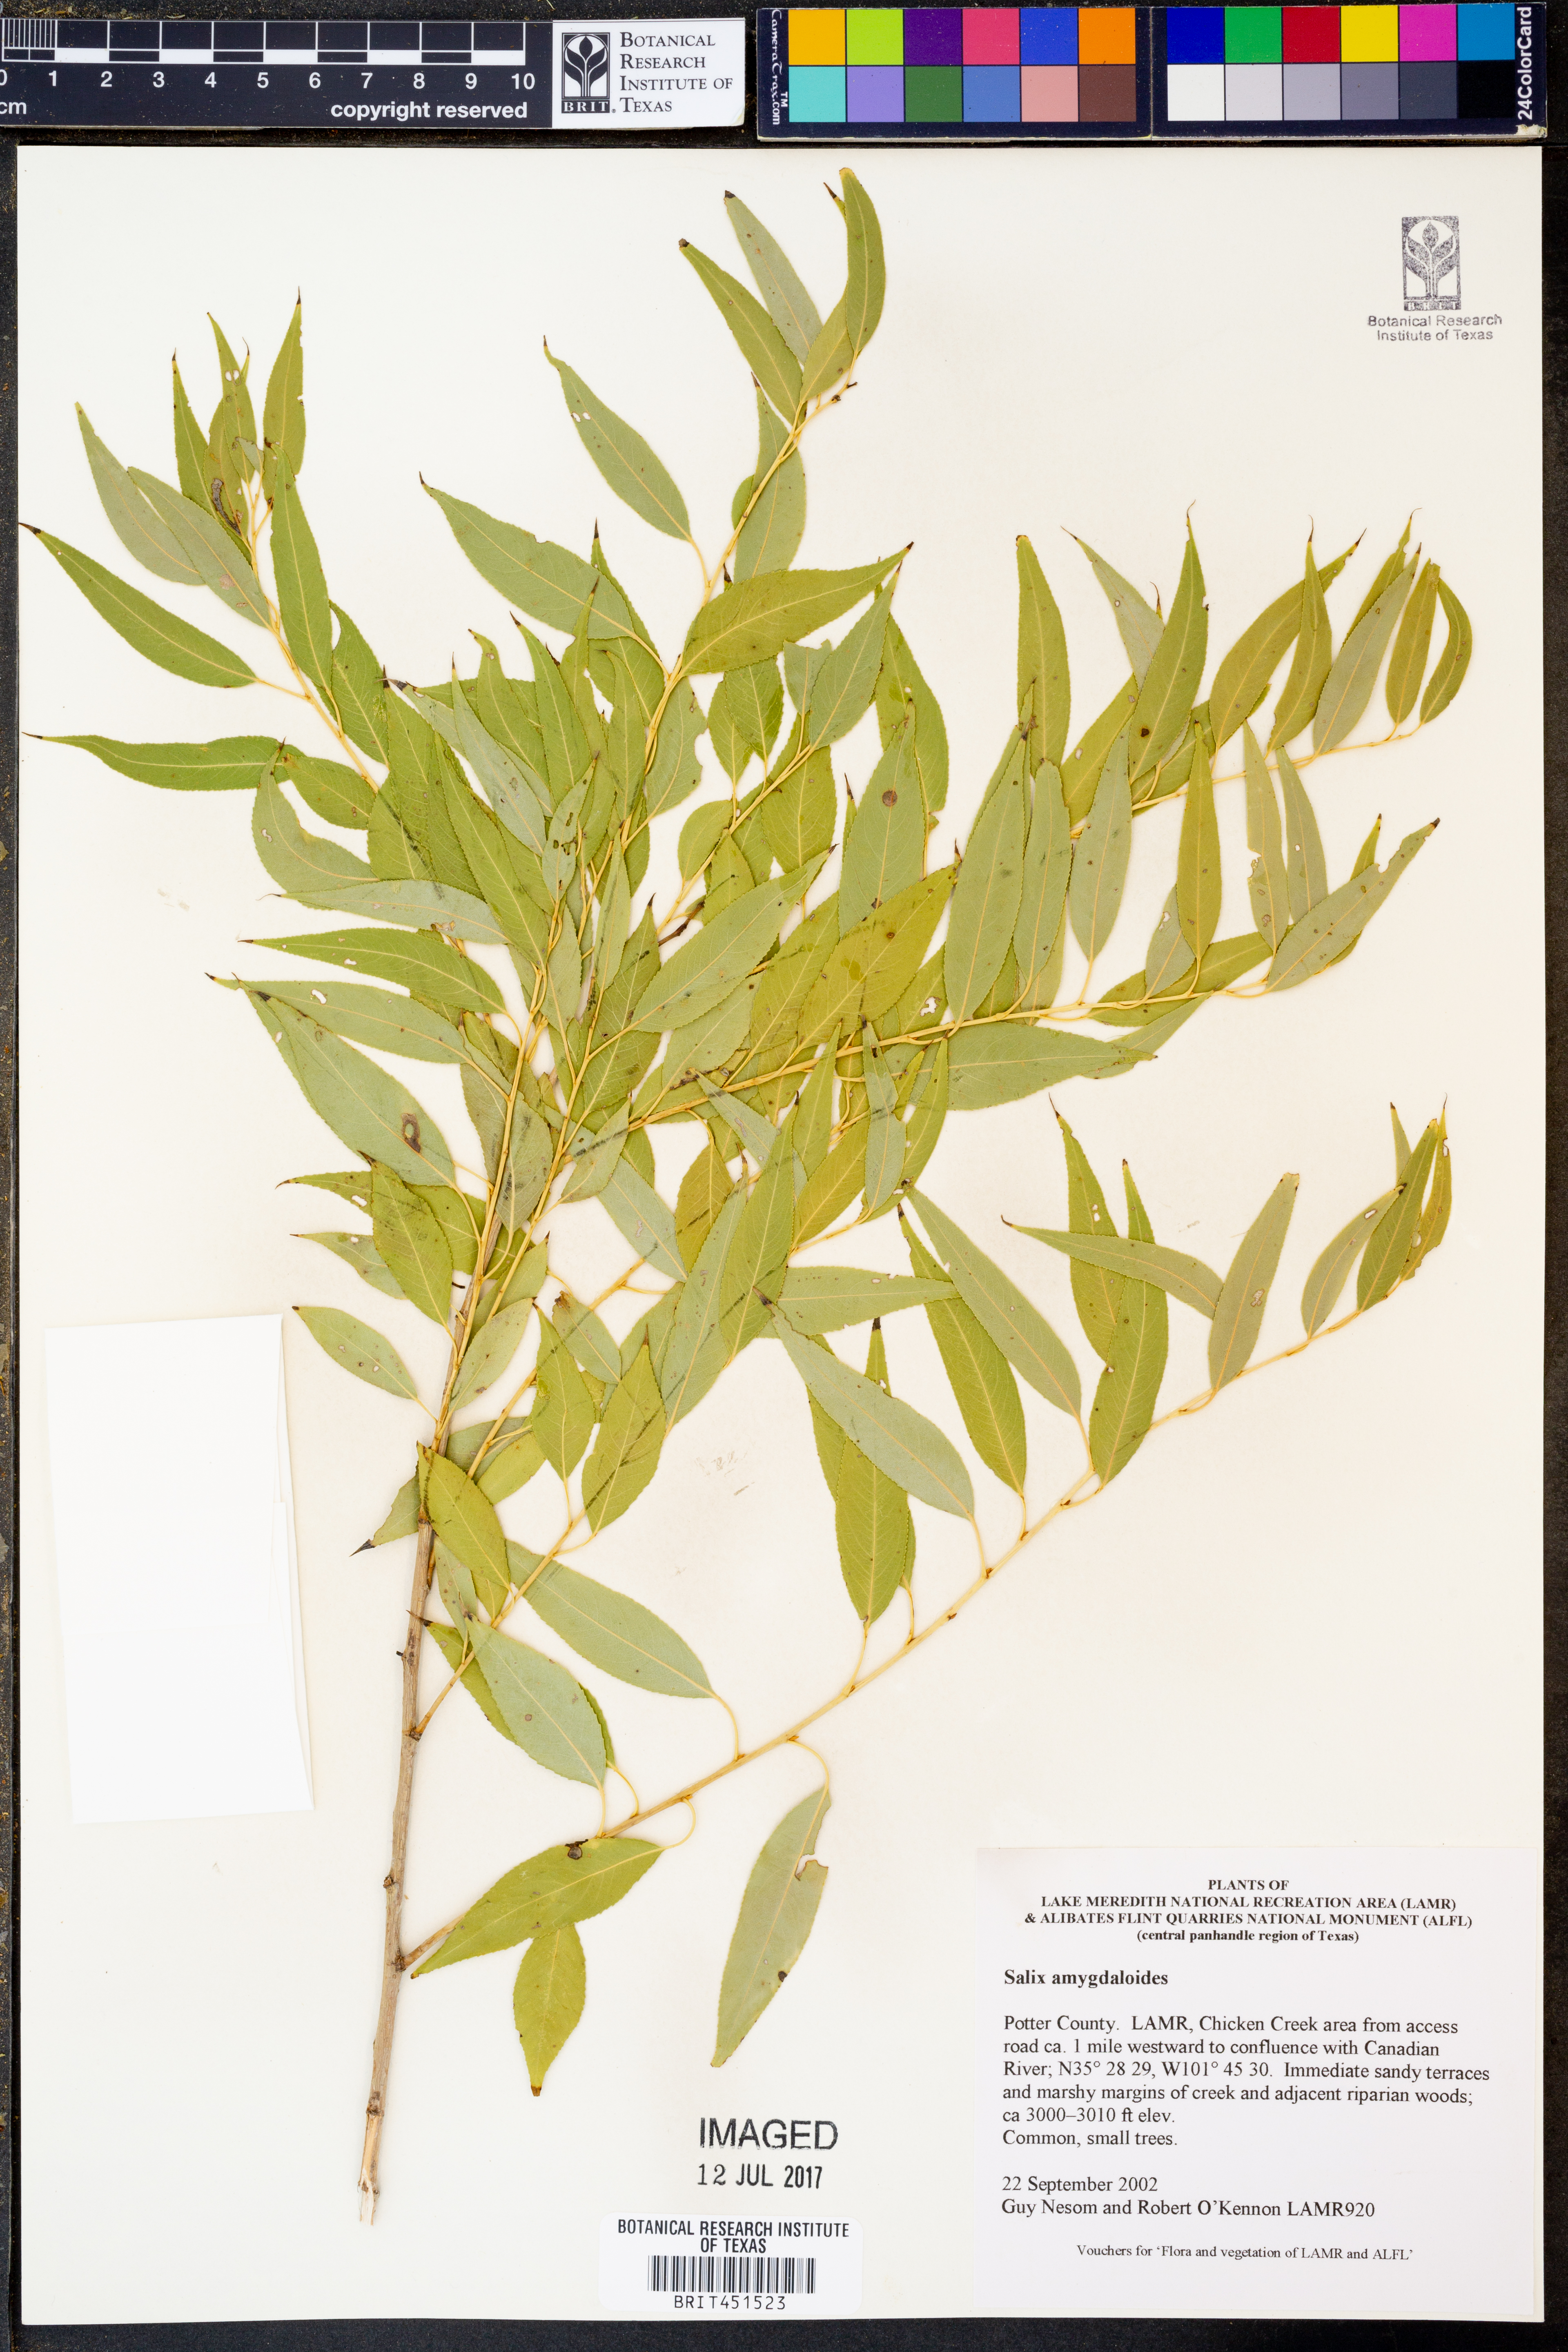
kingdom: Plantae
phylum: Tracheophyta
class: Magnoliopsida
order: Malpighiales
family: Salicaceae
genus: Salix
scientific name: Salix amygdaloides
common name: Peach leaf willow
